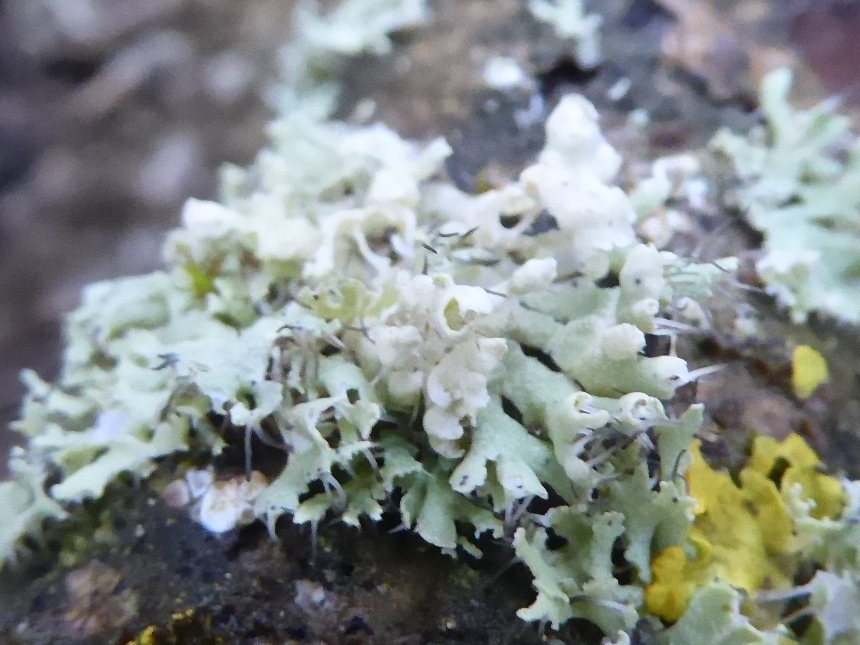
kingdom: Fungi
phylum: Ascomycota
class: Lecanoromycetes
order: Caliciales
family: Physciaceae
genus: Physcia
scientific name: Physcia adscendens
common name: hætte-rosetlav
